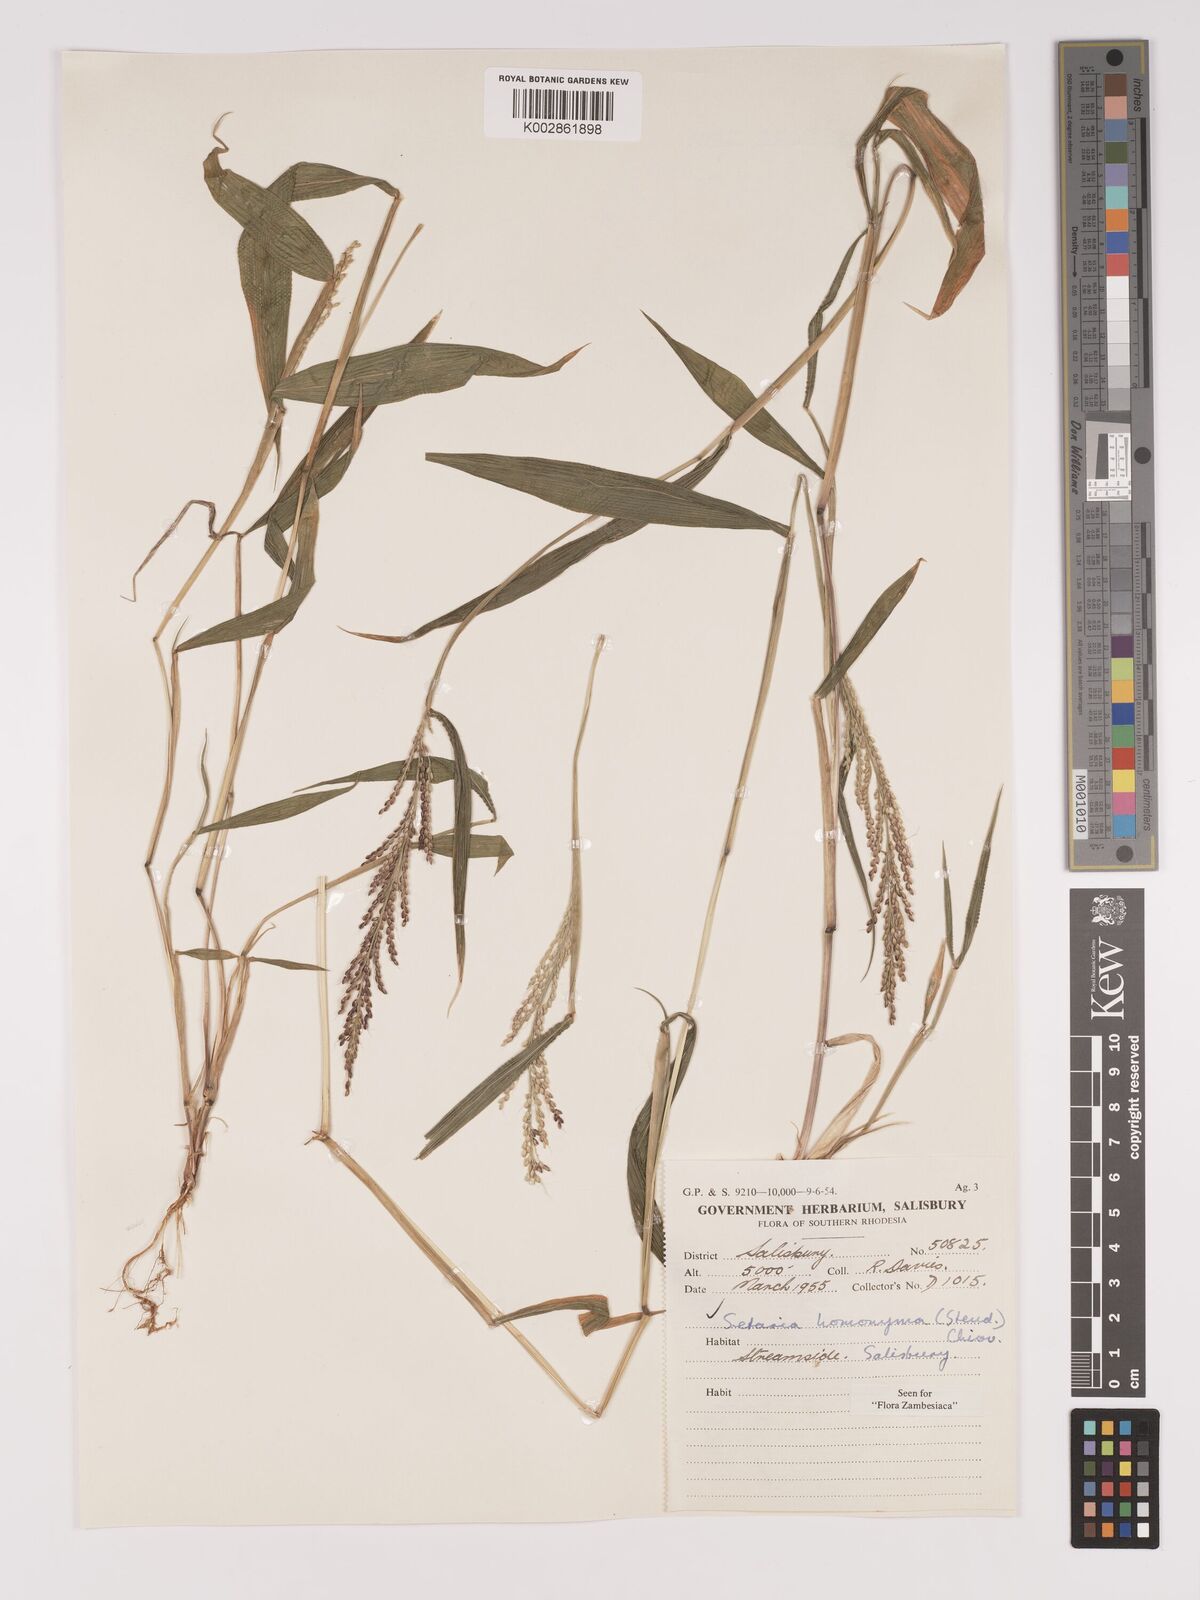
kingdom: Plantae
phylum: Tracheophyta
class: Liliopsida
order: Poales
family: Poaceae
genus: Setaria
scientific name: Setaria homonyma
